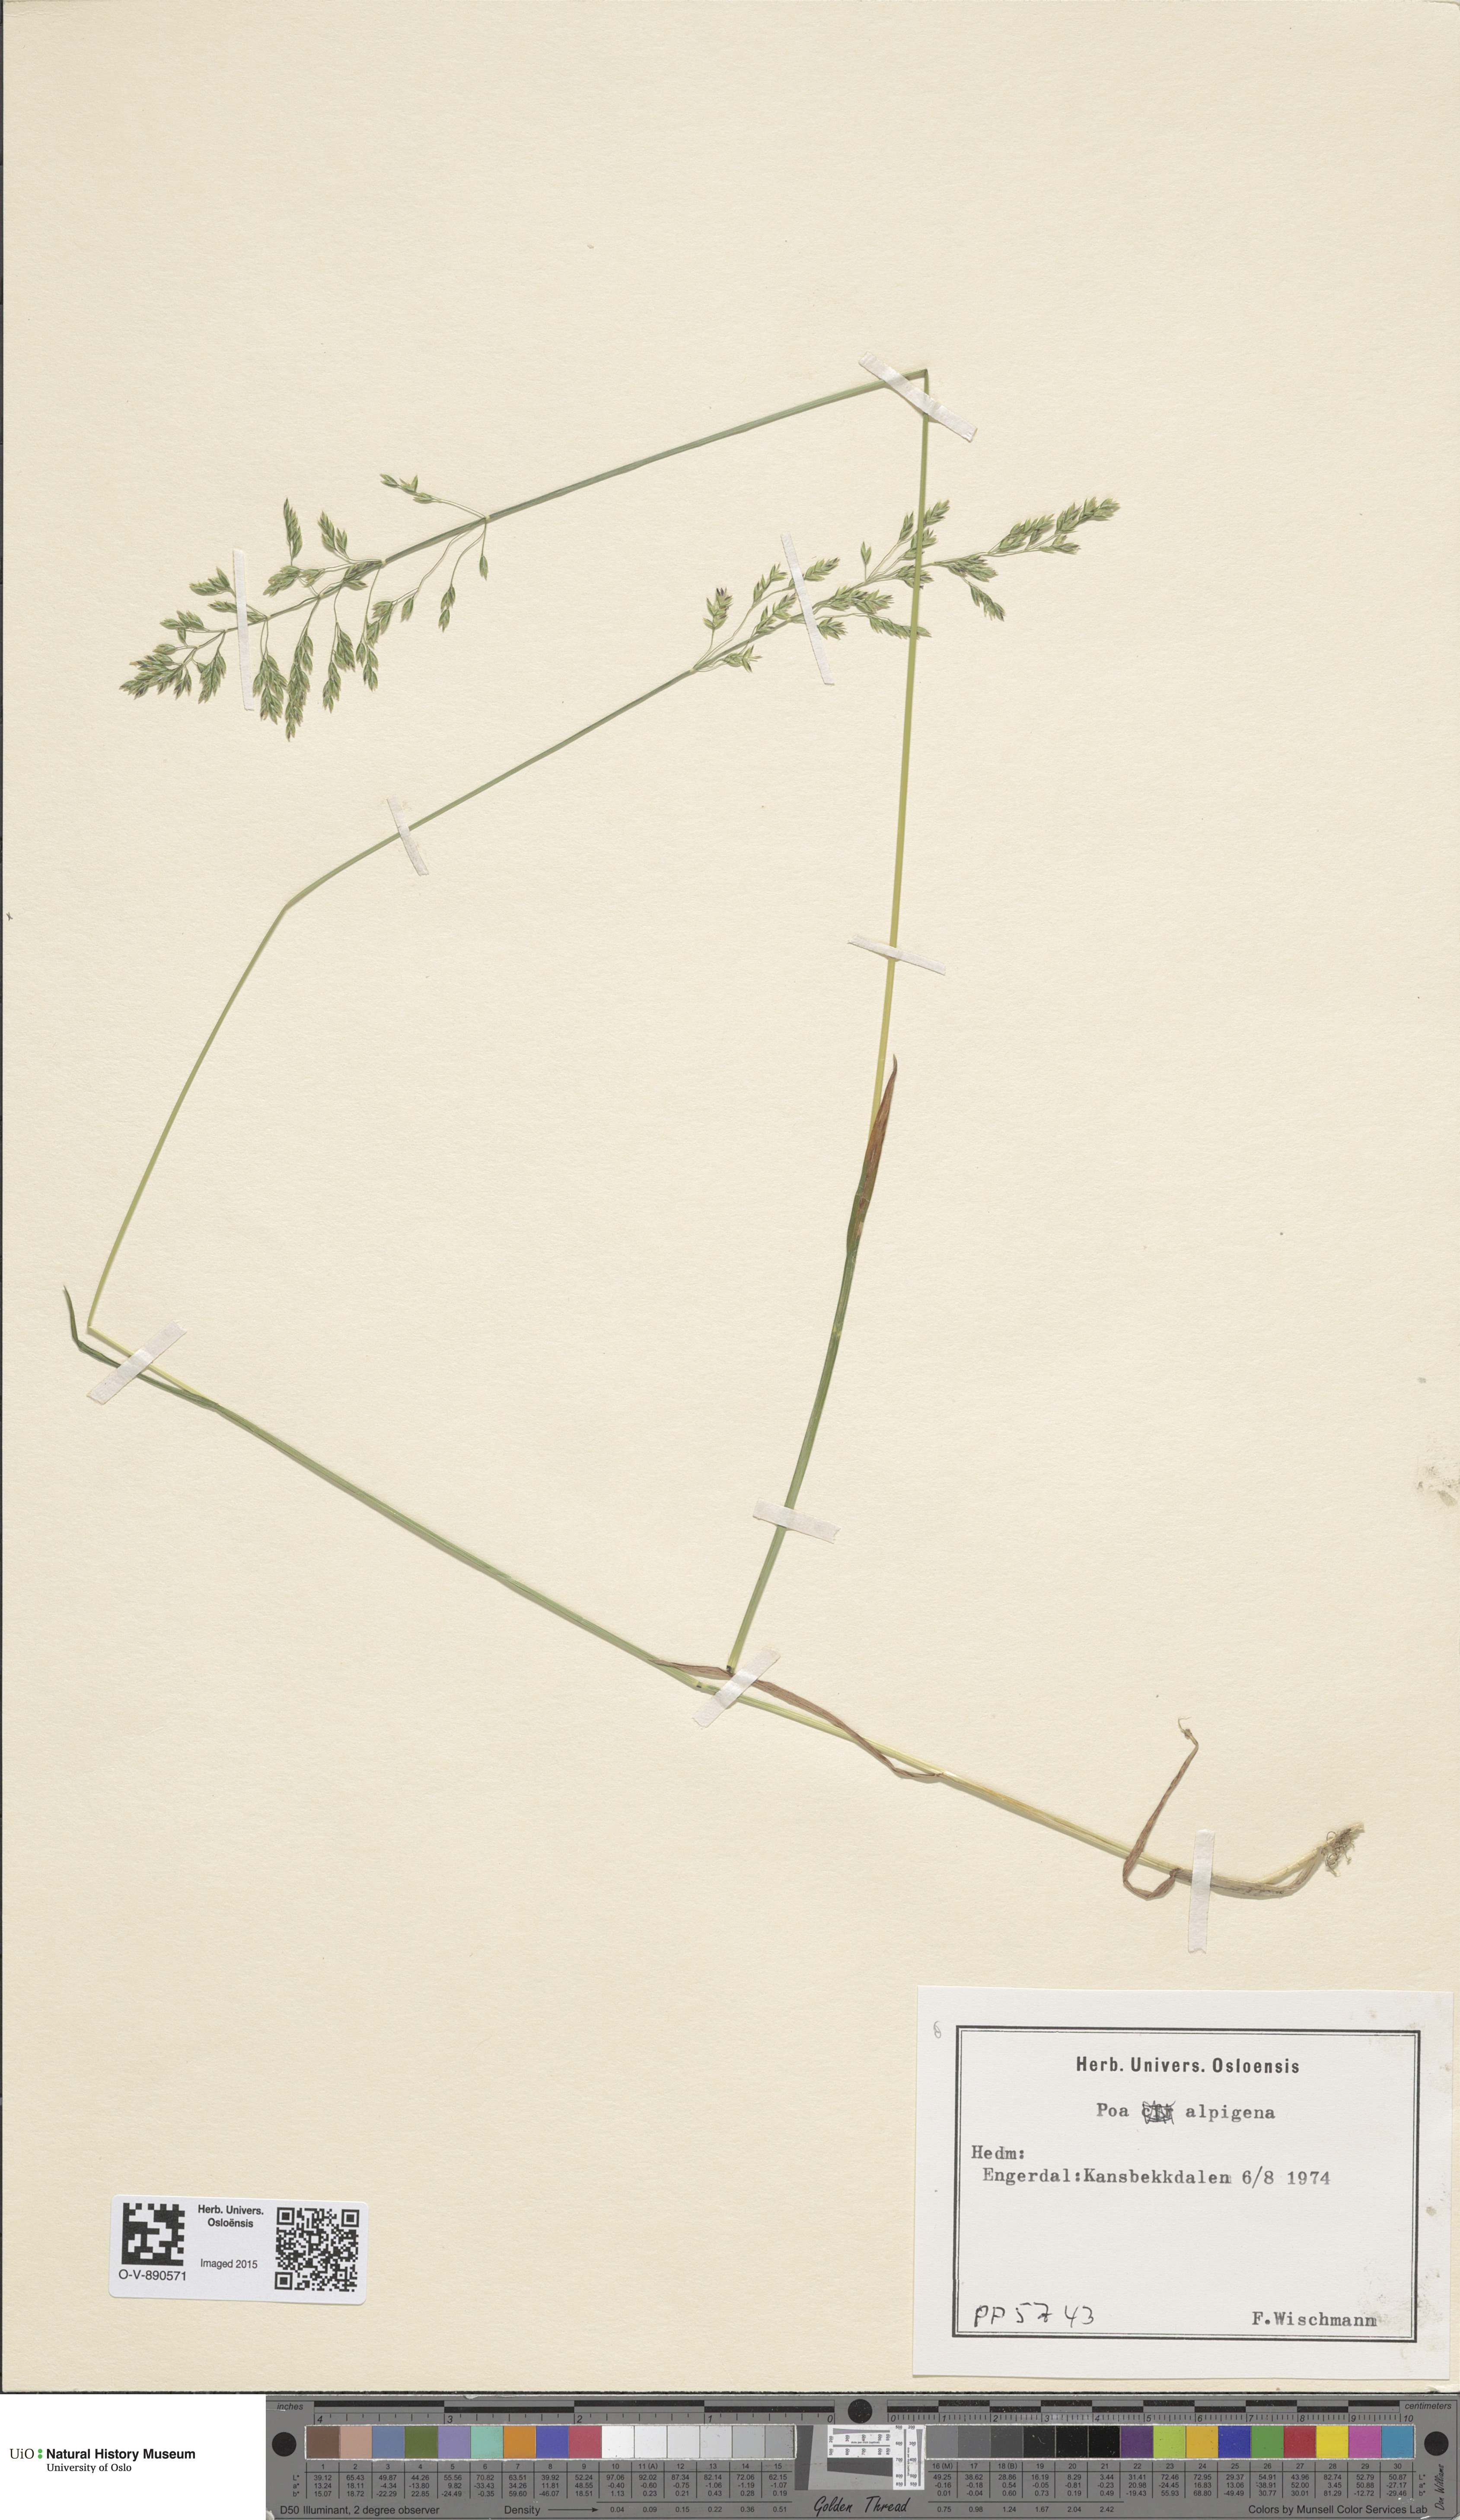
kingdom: Plantae
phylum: Tracheophyta
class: Liliopsida
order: Poales
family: Poaceae
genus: Poa
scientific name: Poa alpigena
